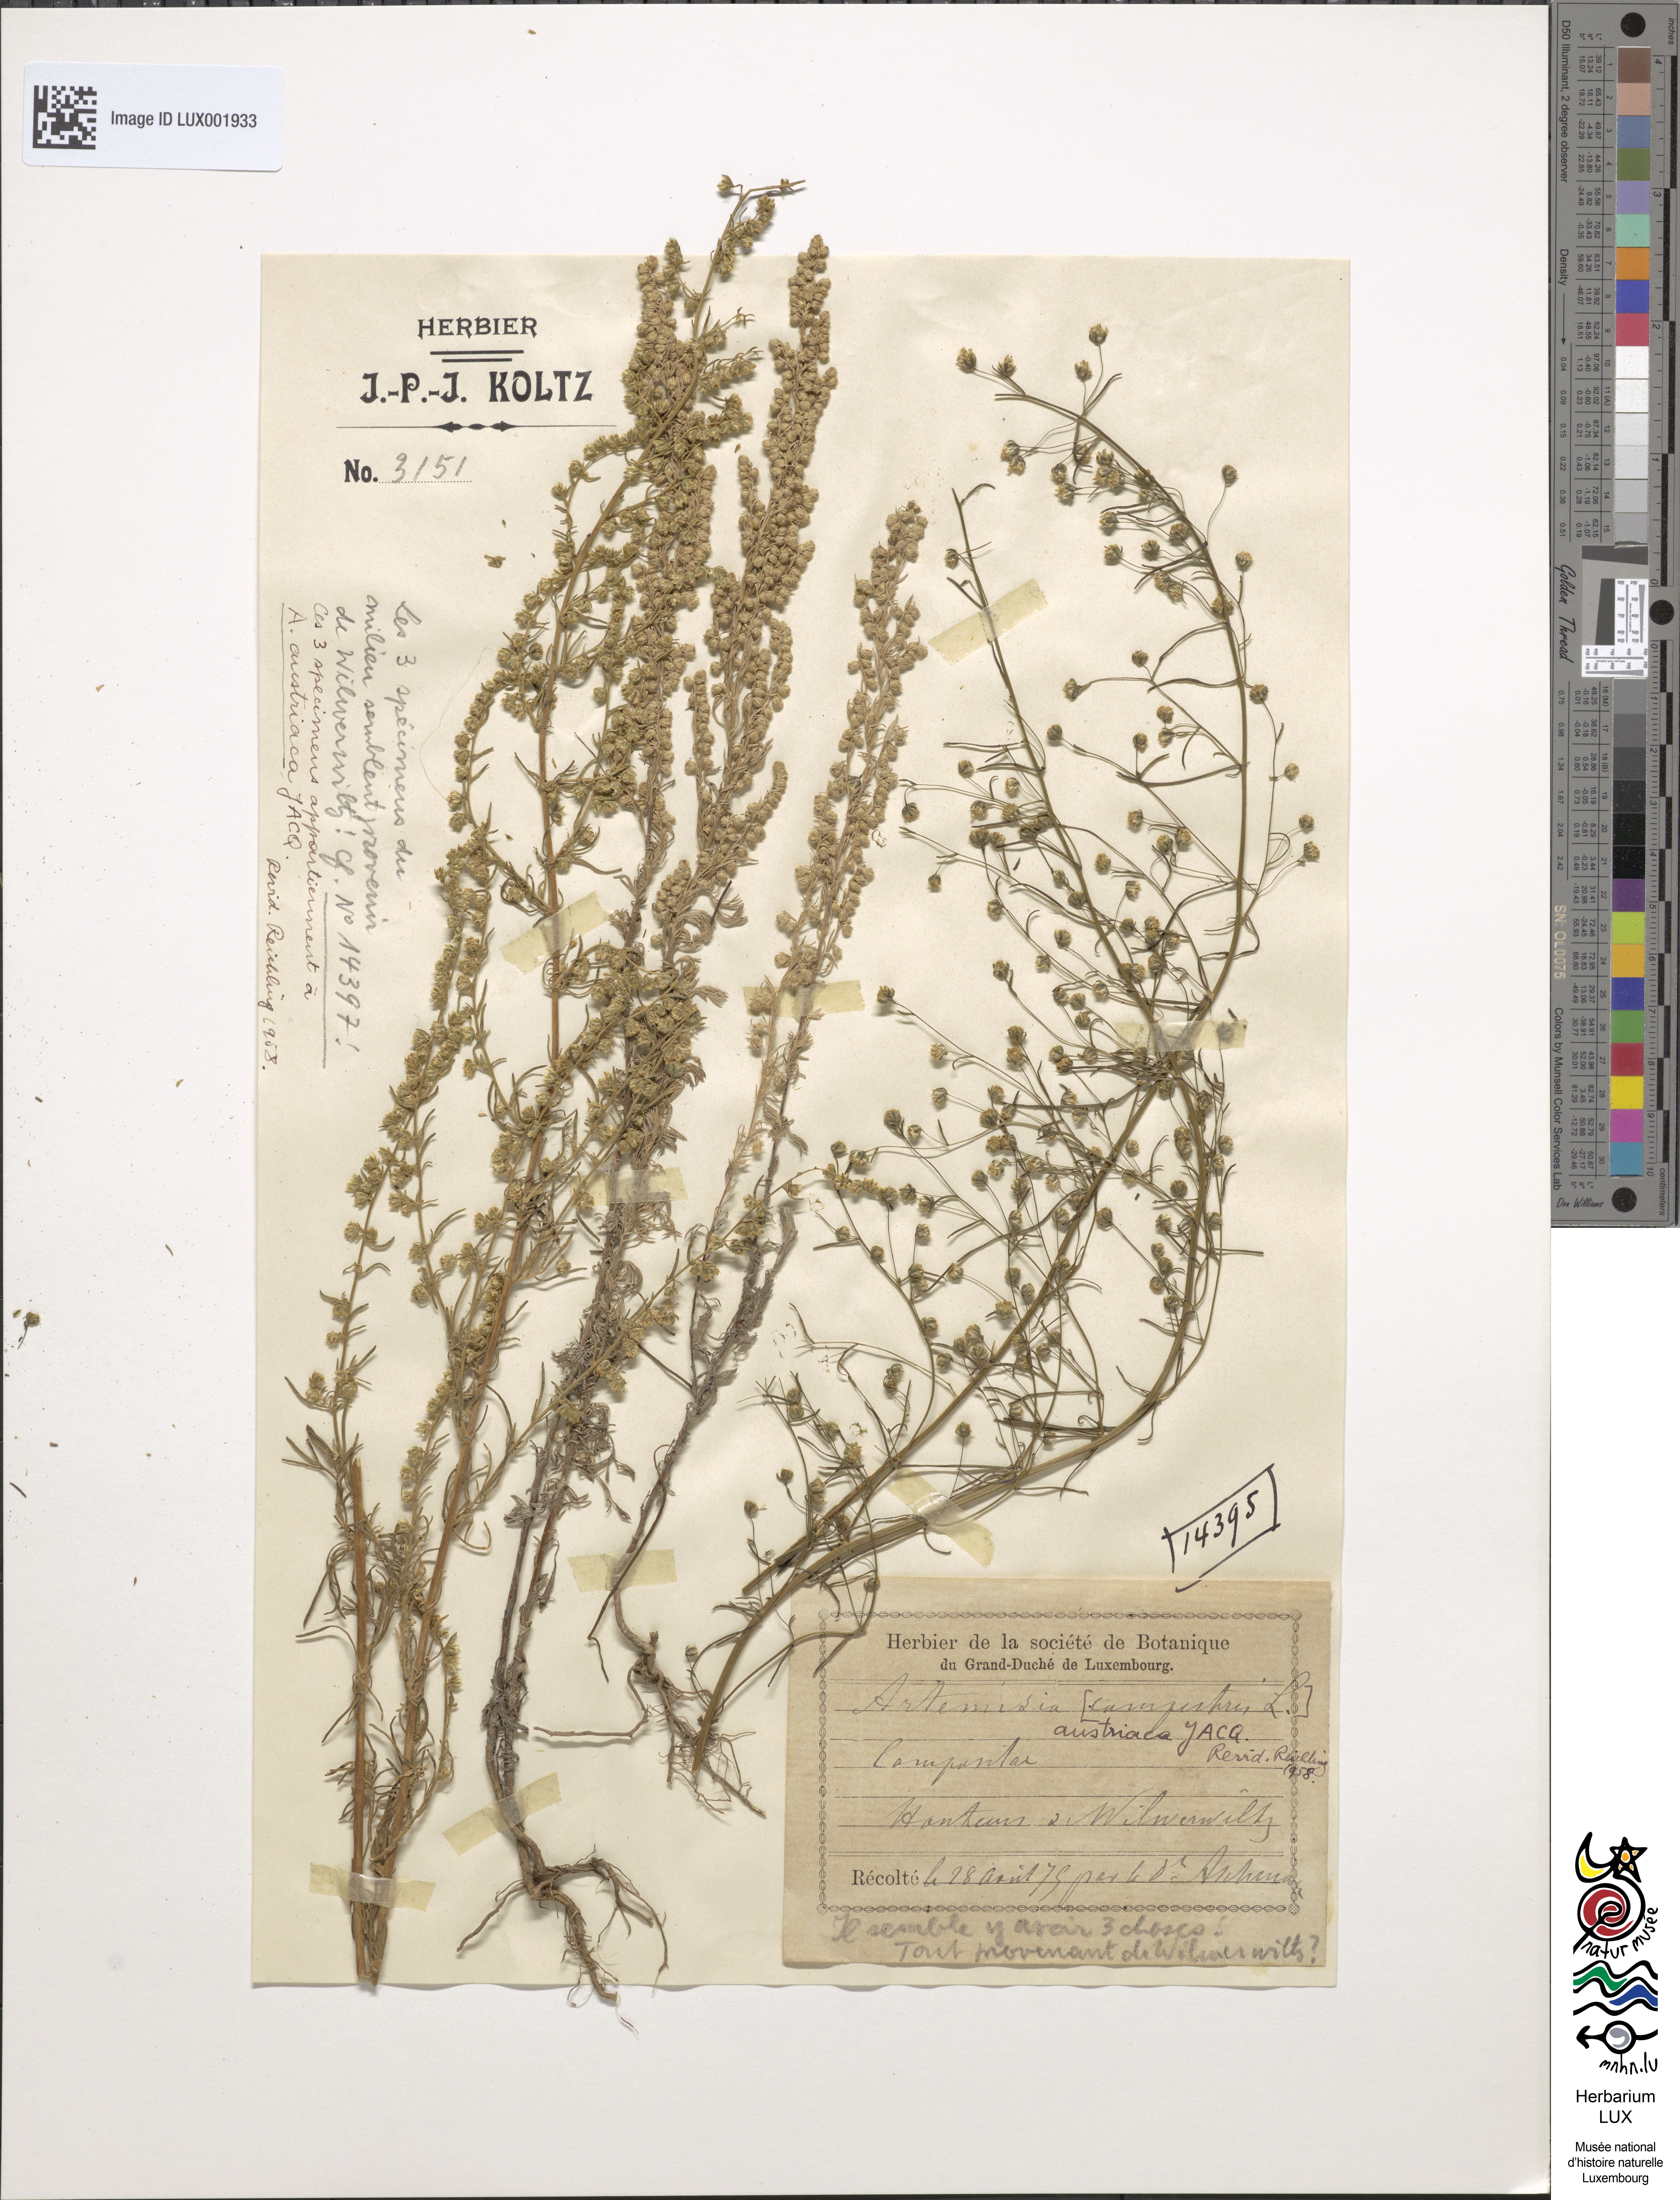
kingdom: Plantae
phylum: Tracheophyta
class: Magnoliopsida
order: Asterales
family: Asteraceae
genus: Artemisia
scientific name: Artemisia austriaca
